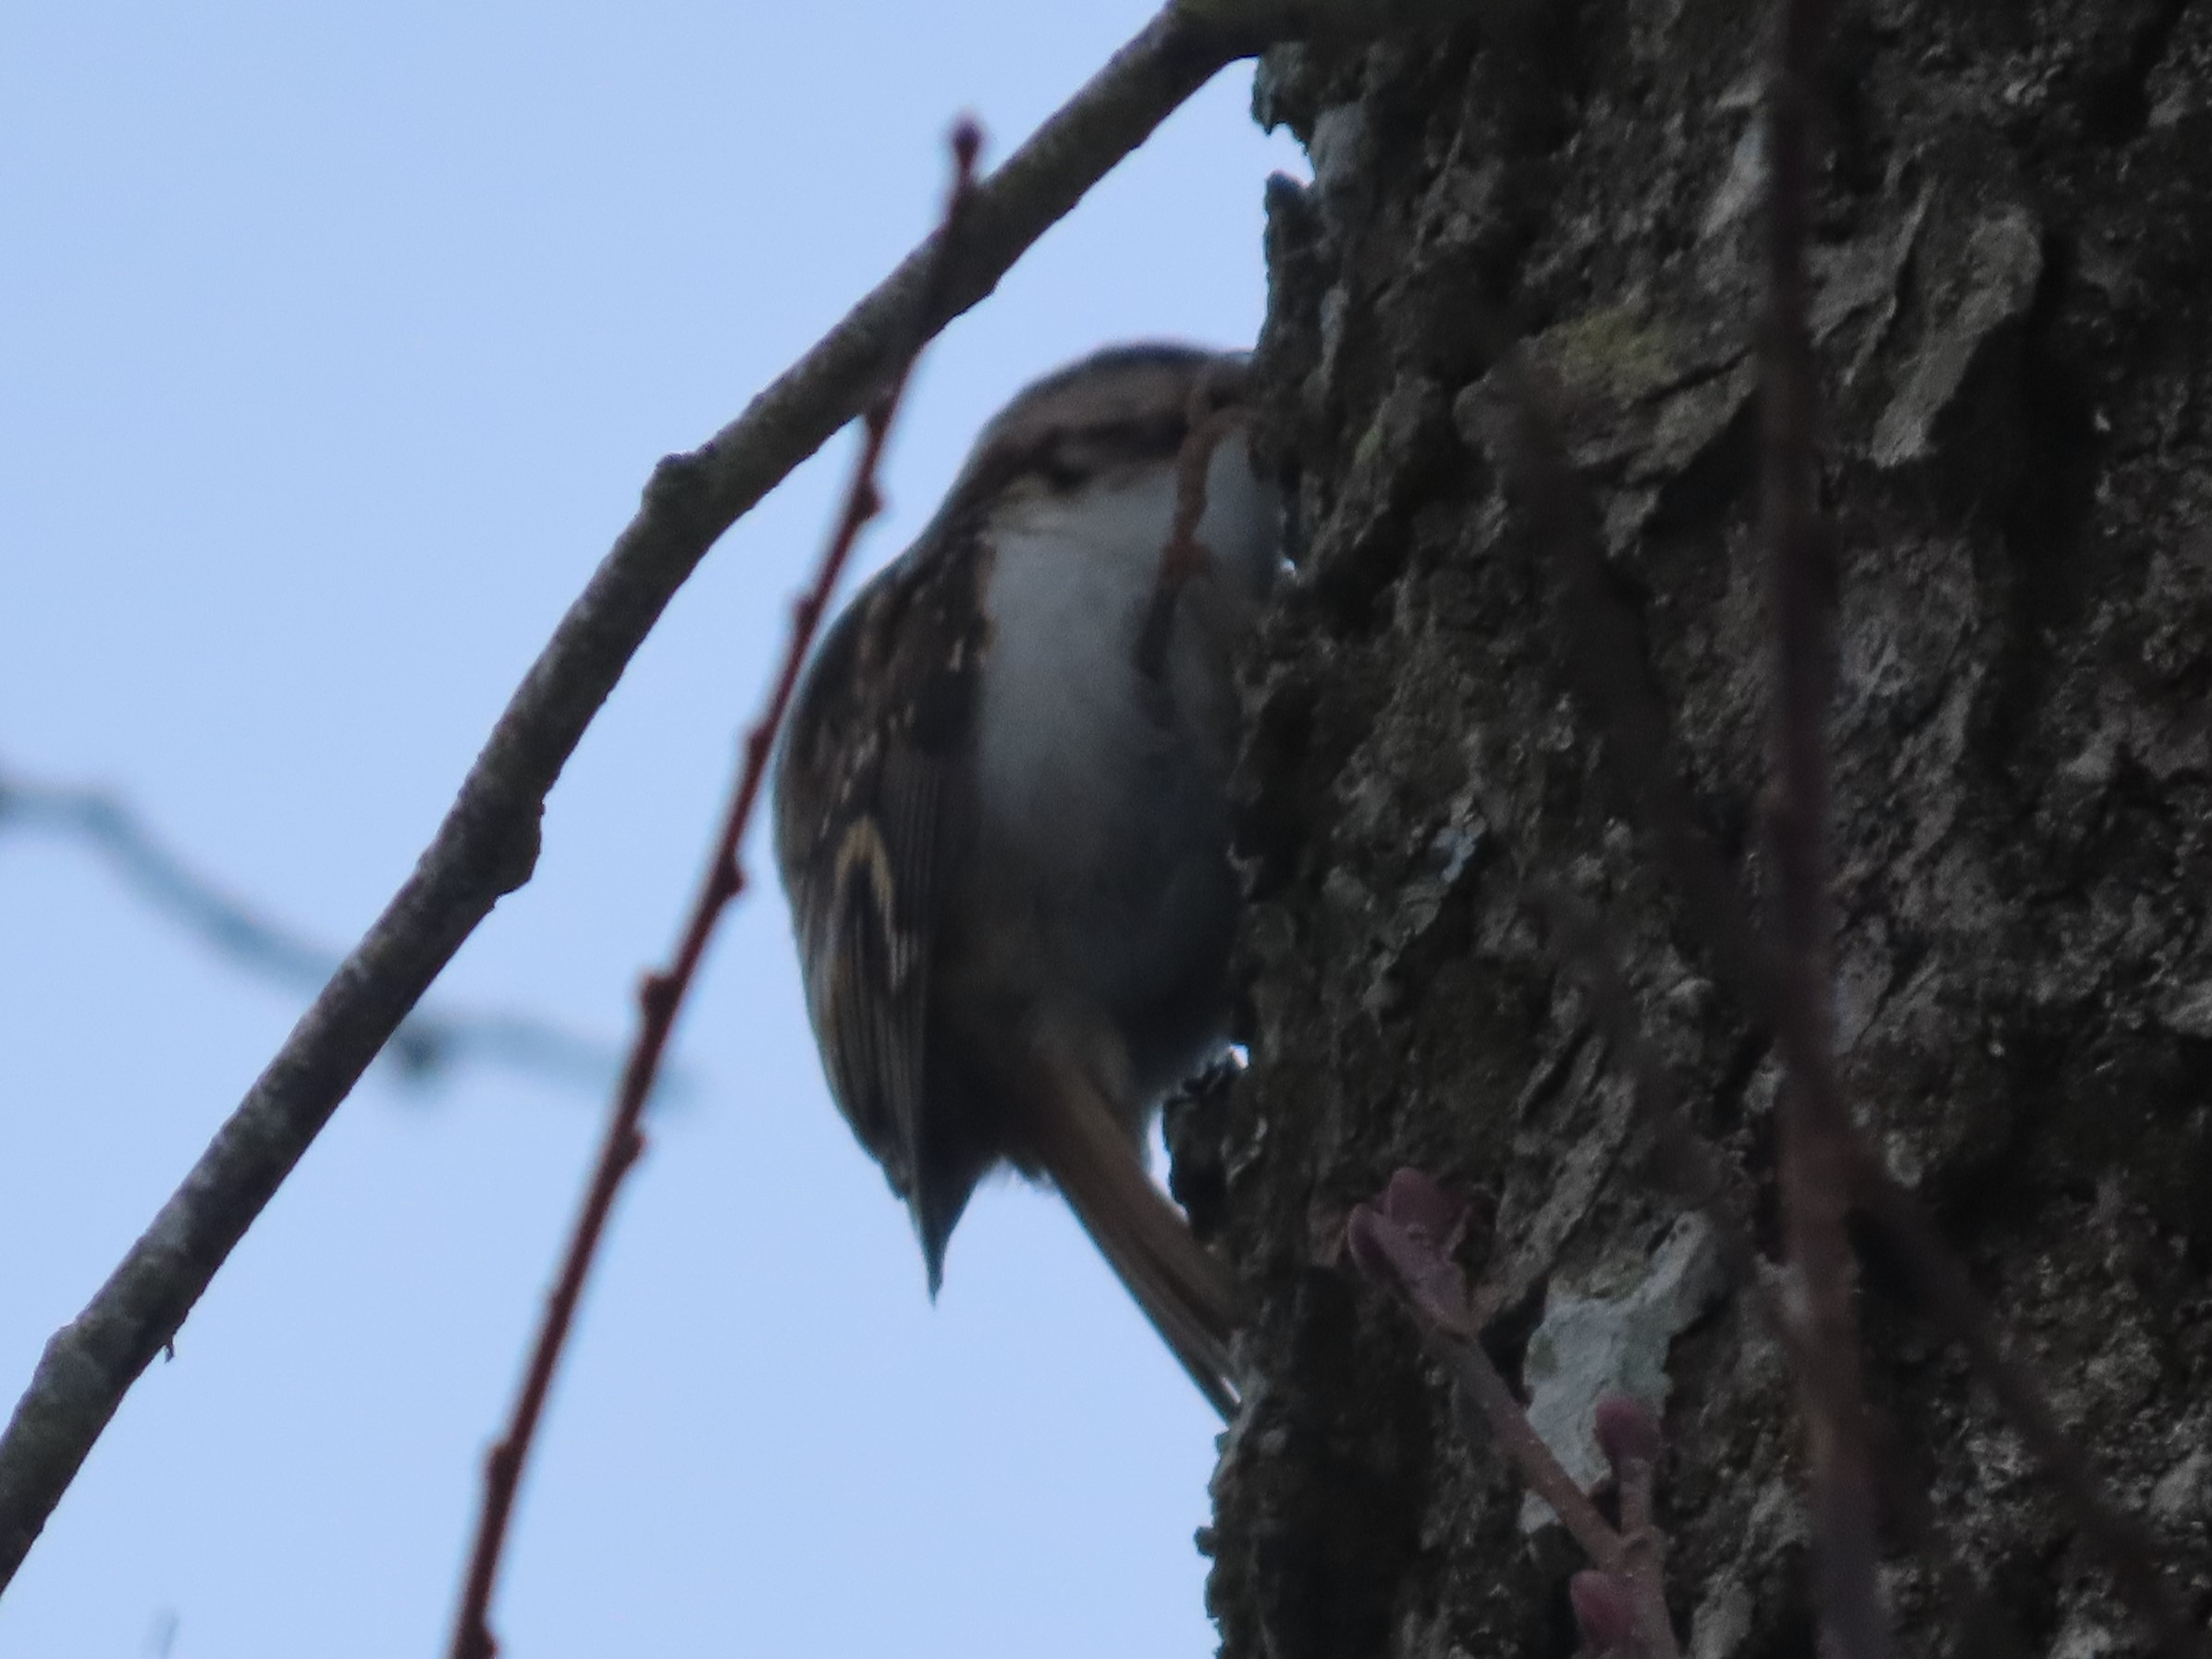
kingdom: Animalia
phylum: Chordata
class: Aves
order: Passeriformes
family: Certhiidae
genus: Certhia
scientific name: Certhia familiaris
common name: Træløber
